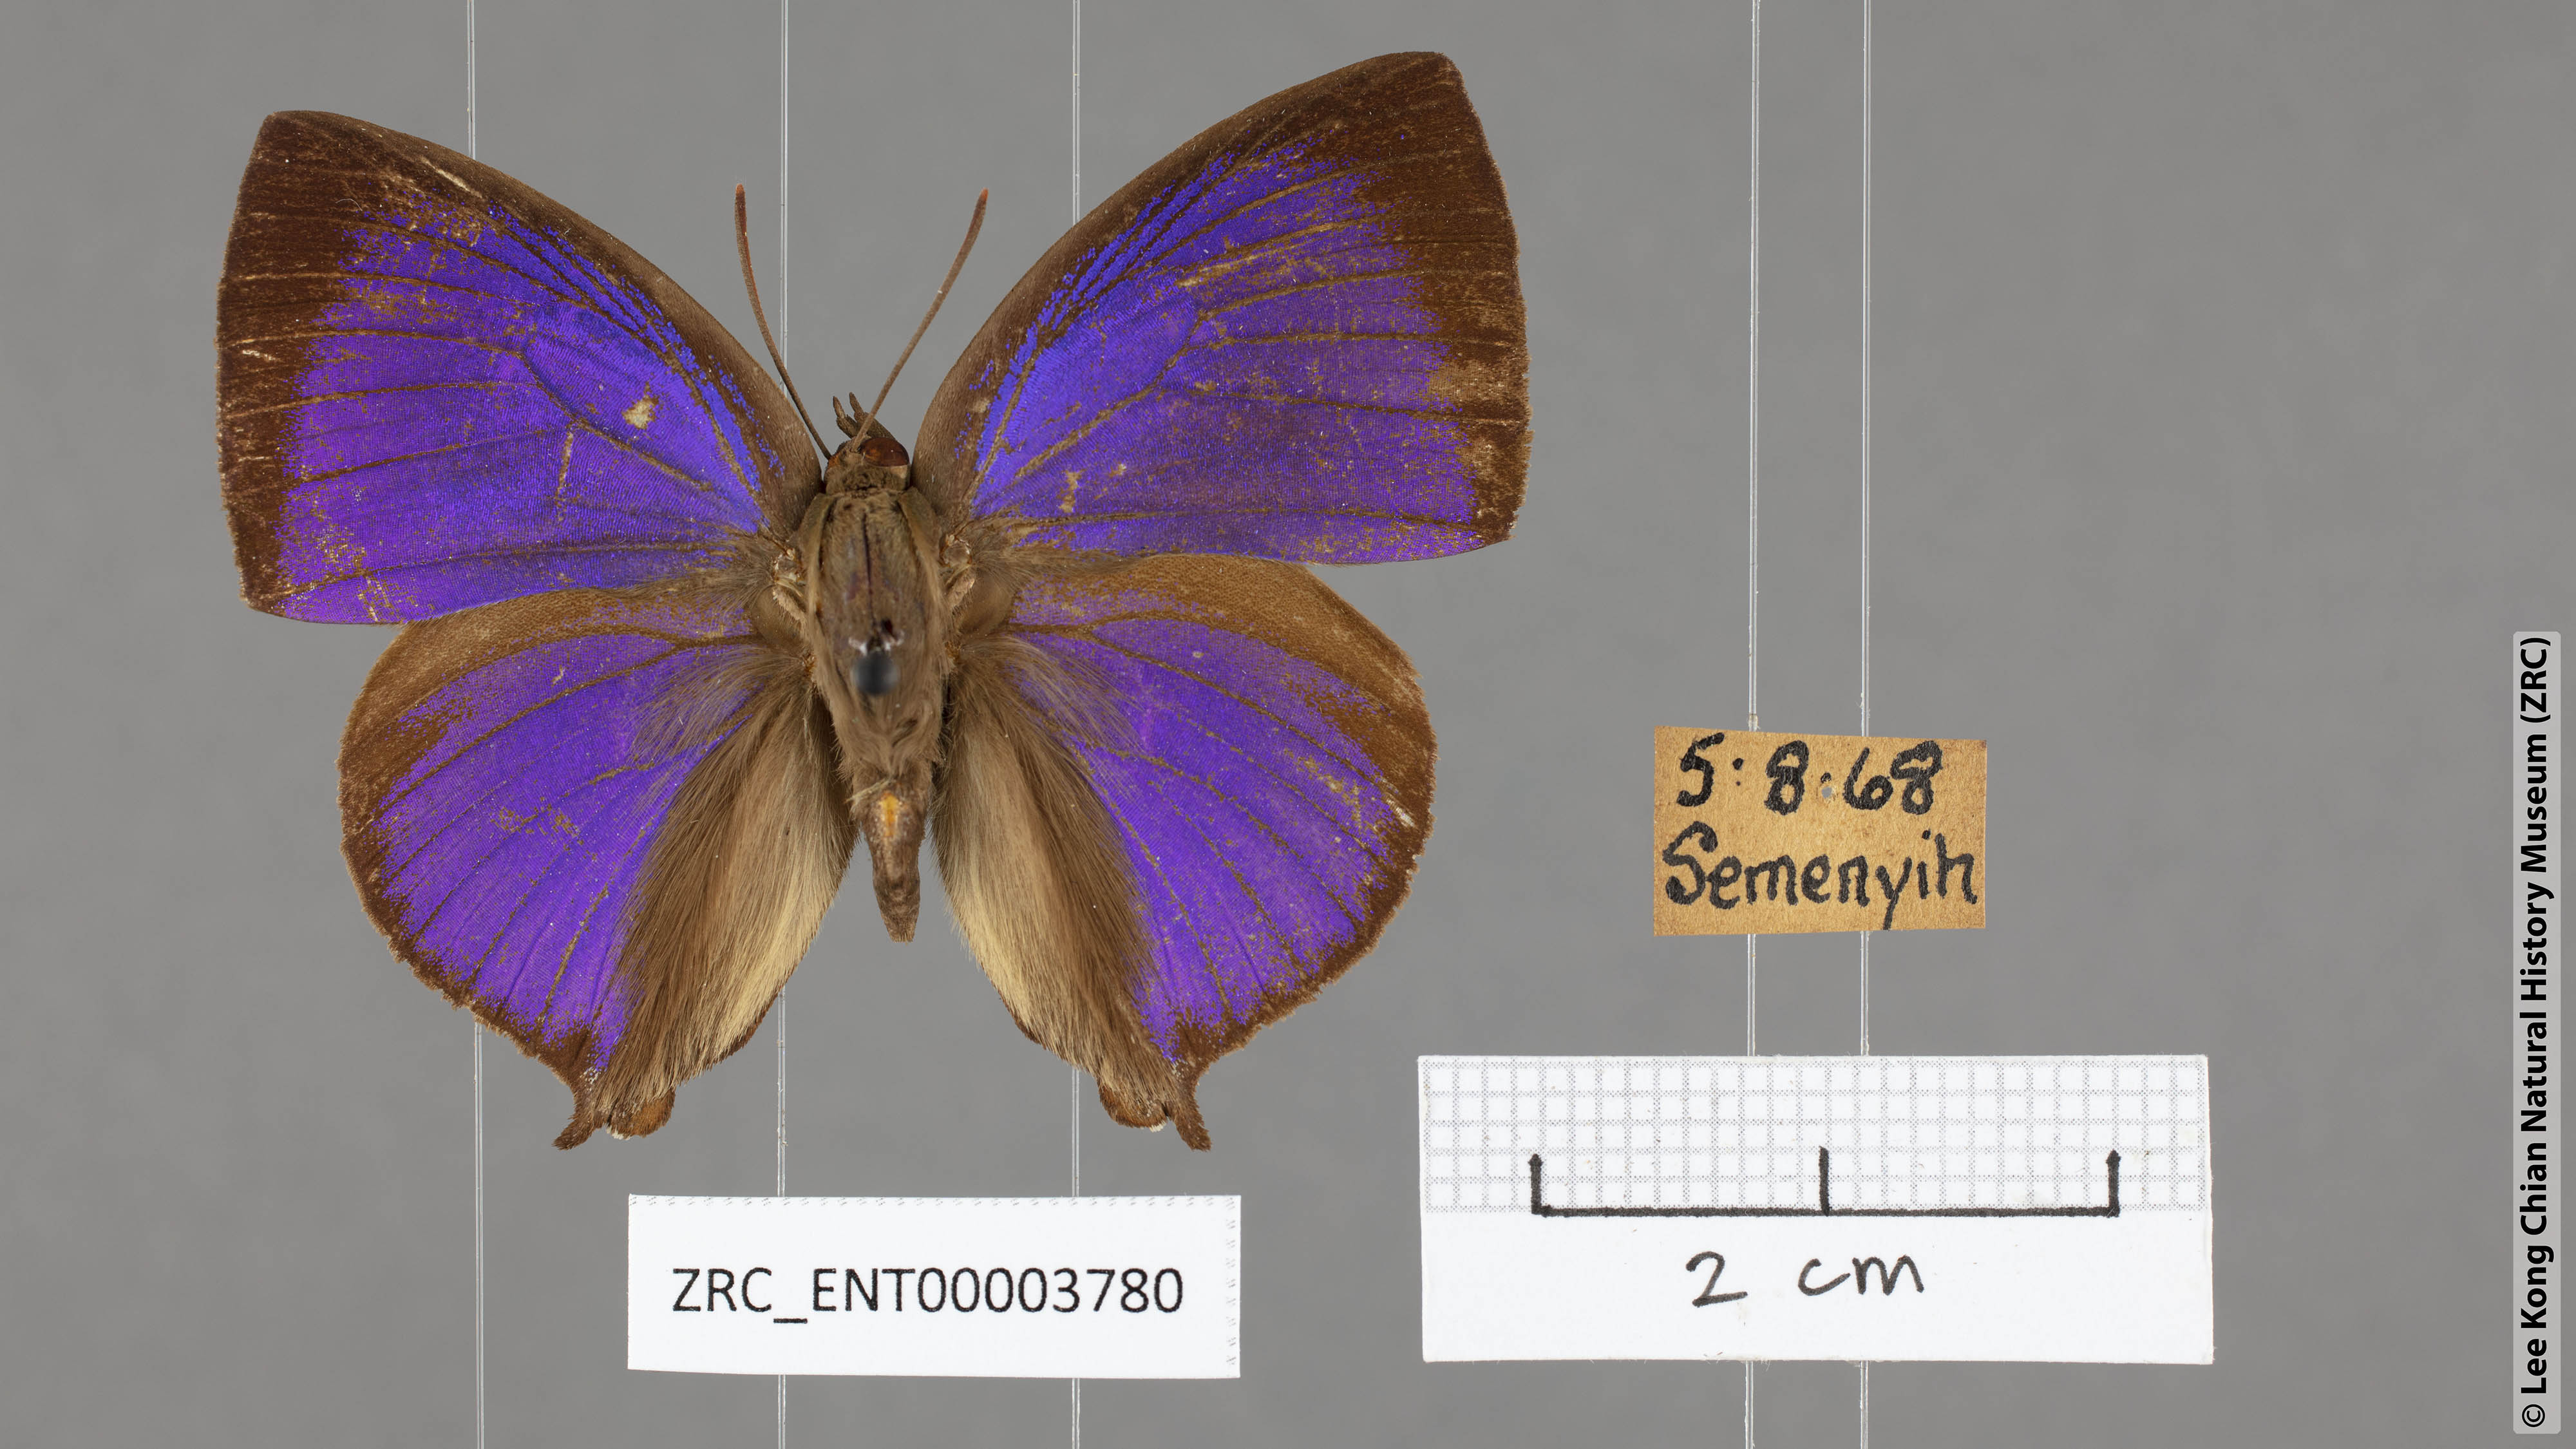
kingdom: Animalia
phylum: Arthropoda
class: Insecta
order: Lepidoptera
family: Lycaenidae
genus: Amblypodia
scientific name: Amblypodia narada
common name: Blue leaf blue
